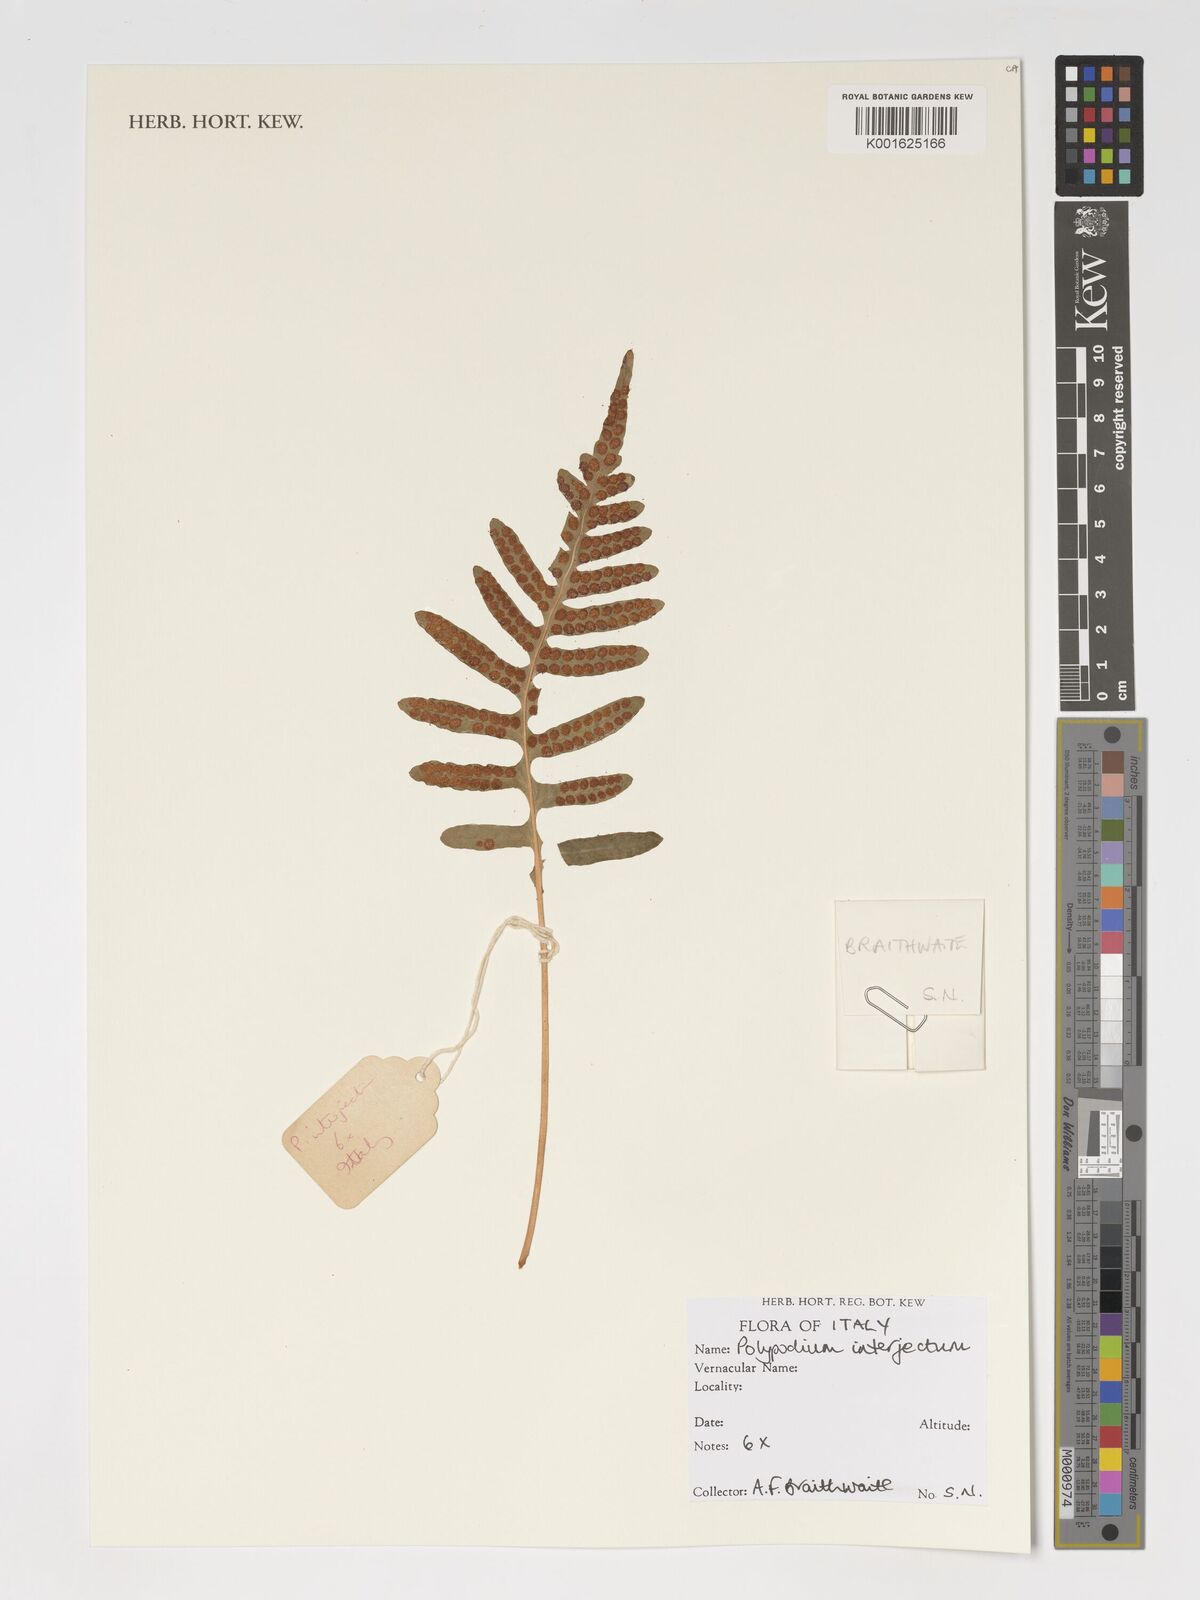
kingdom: Plantae
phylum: Tracheophyta
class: Polypodiopsida
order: Polypodiales
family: Polypodiaceae
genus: Polypodium
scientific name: Polypodium interjectum
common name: Intermediate polypody
